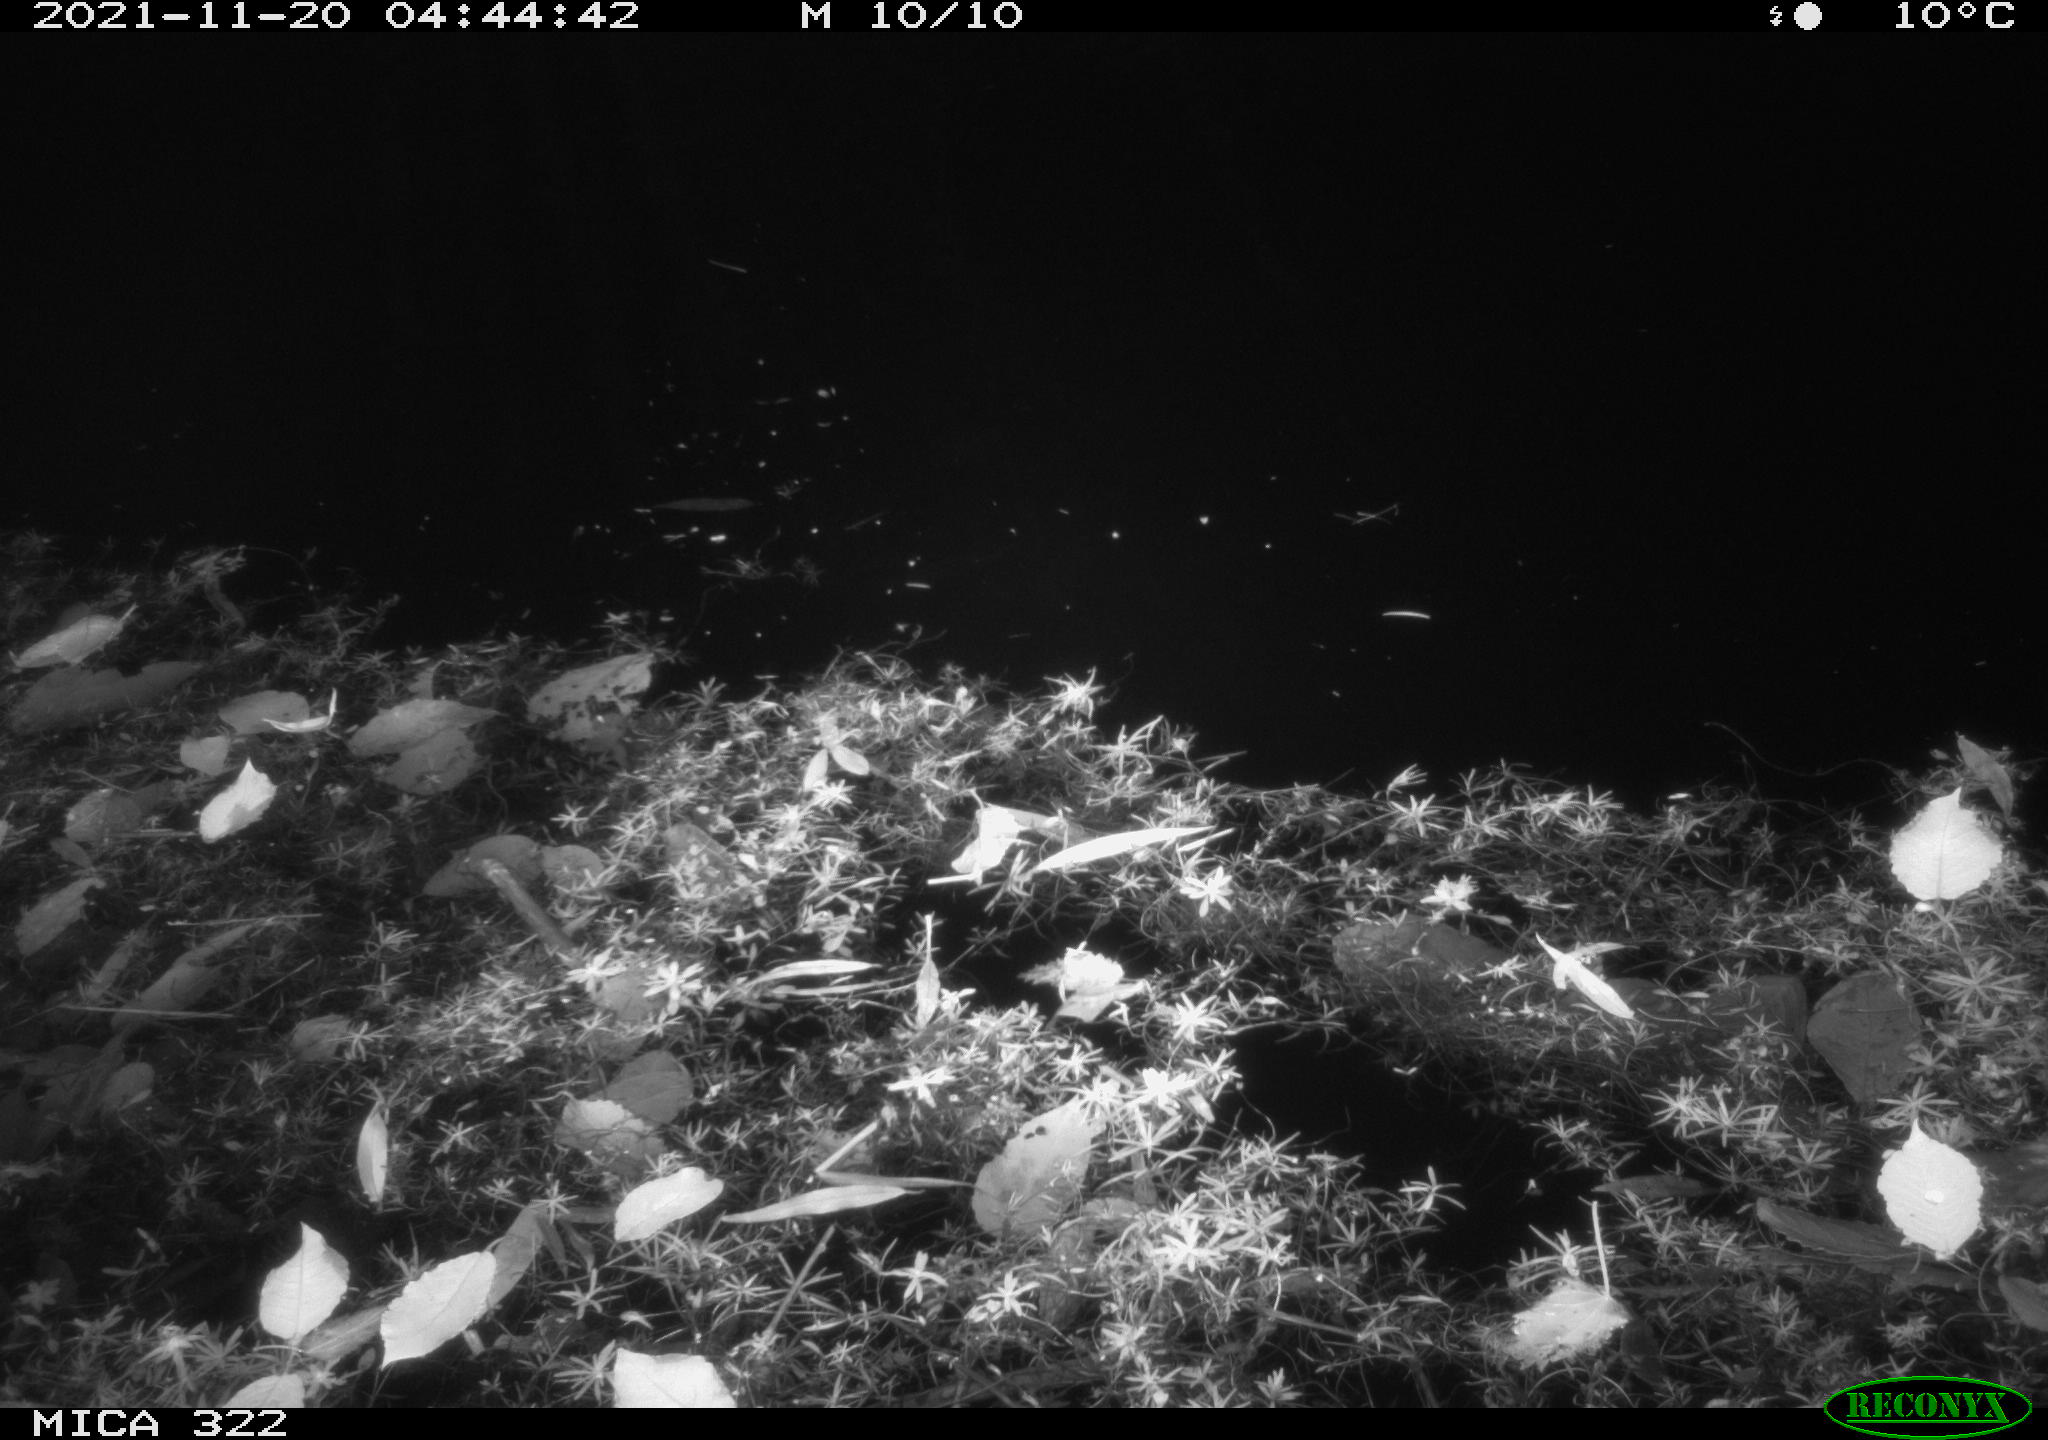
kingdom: Animalia
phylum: Chordata
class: Mammalia
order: Rodentia
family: Muridae
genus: Rattus
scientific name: Rattus norvegicus
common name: Brown rat
